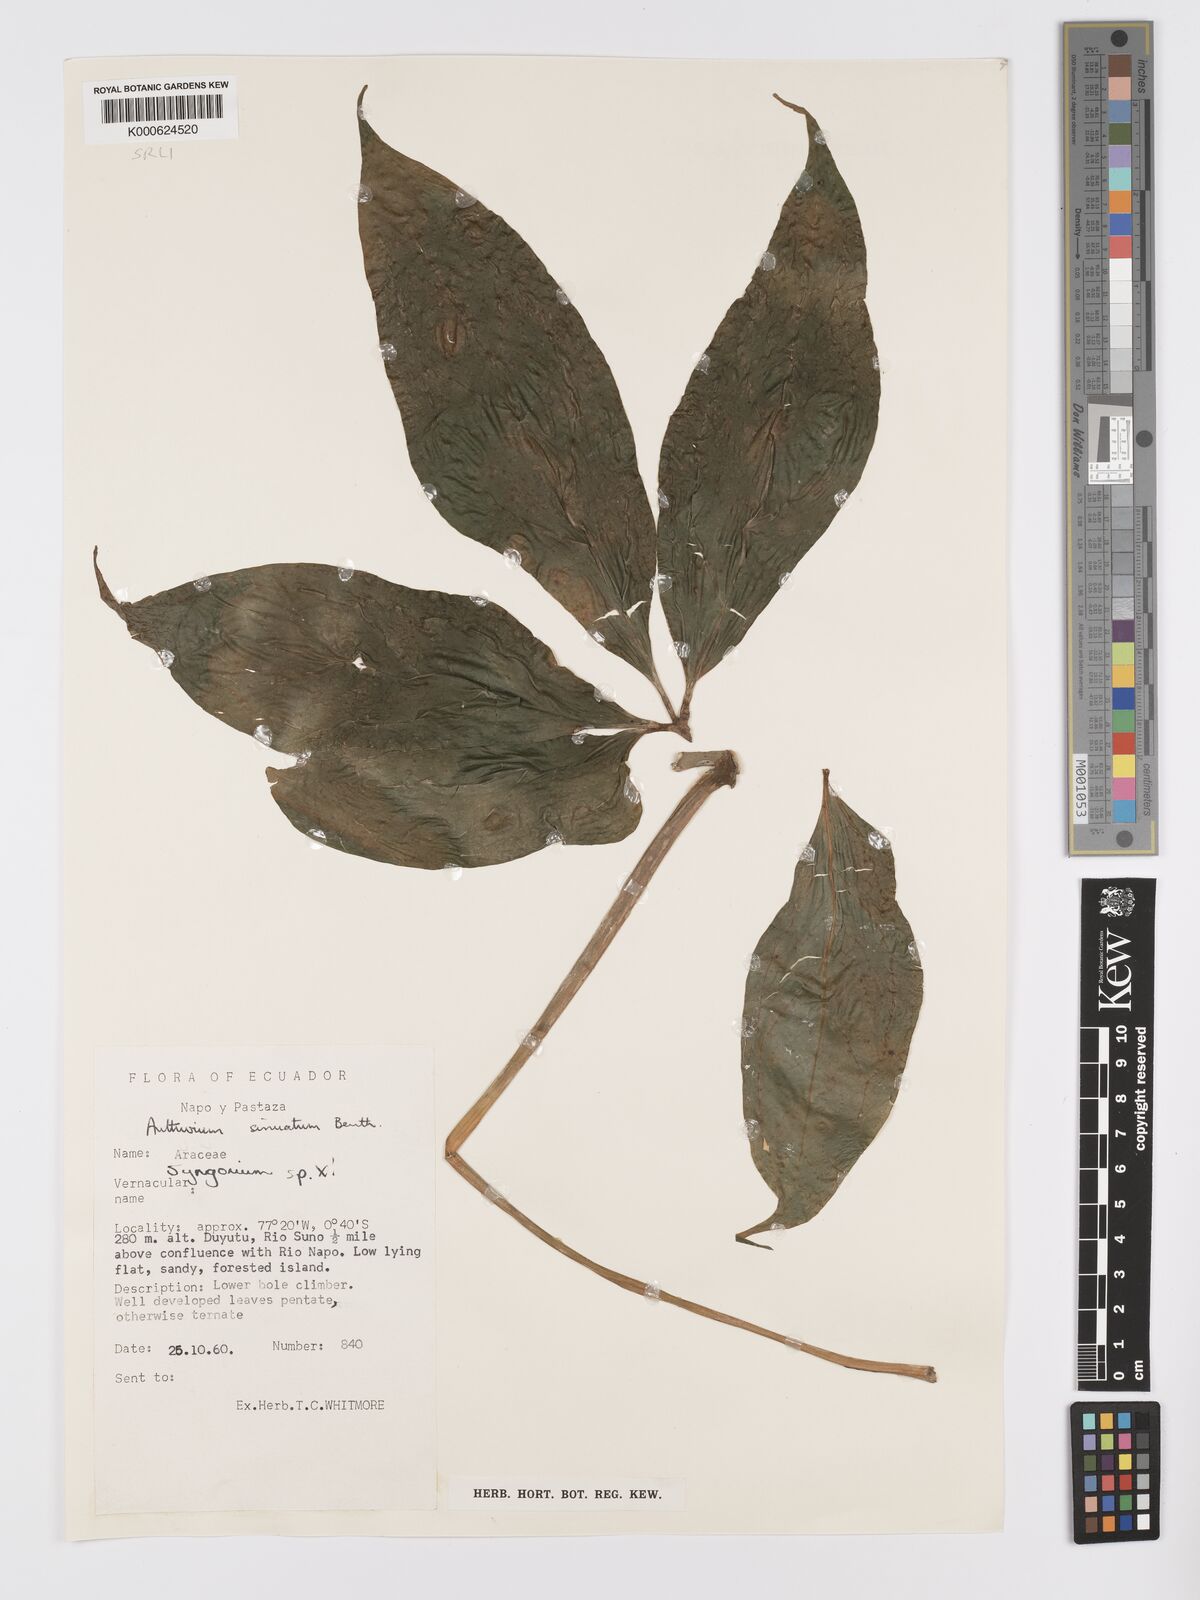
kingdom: Plantae
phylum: Tracheophyta
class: Liliopsida
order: Alismatales
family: Araceae
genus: Anthurium
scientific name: Anthurium sinuatum
